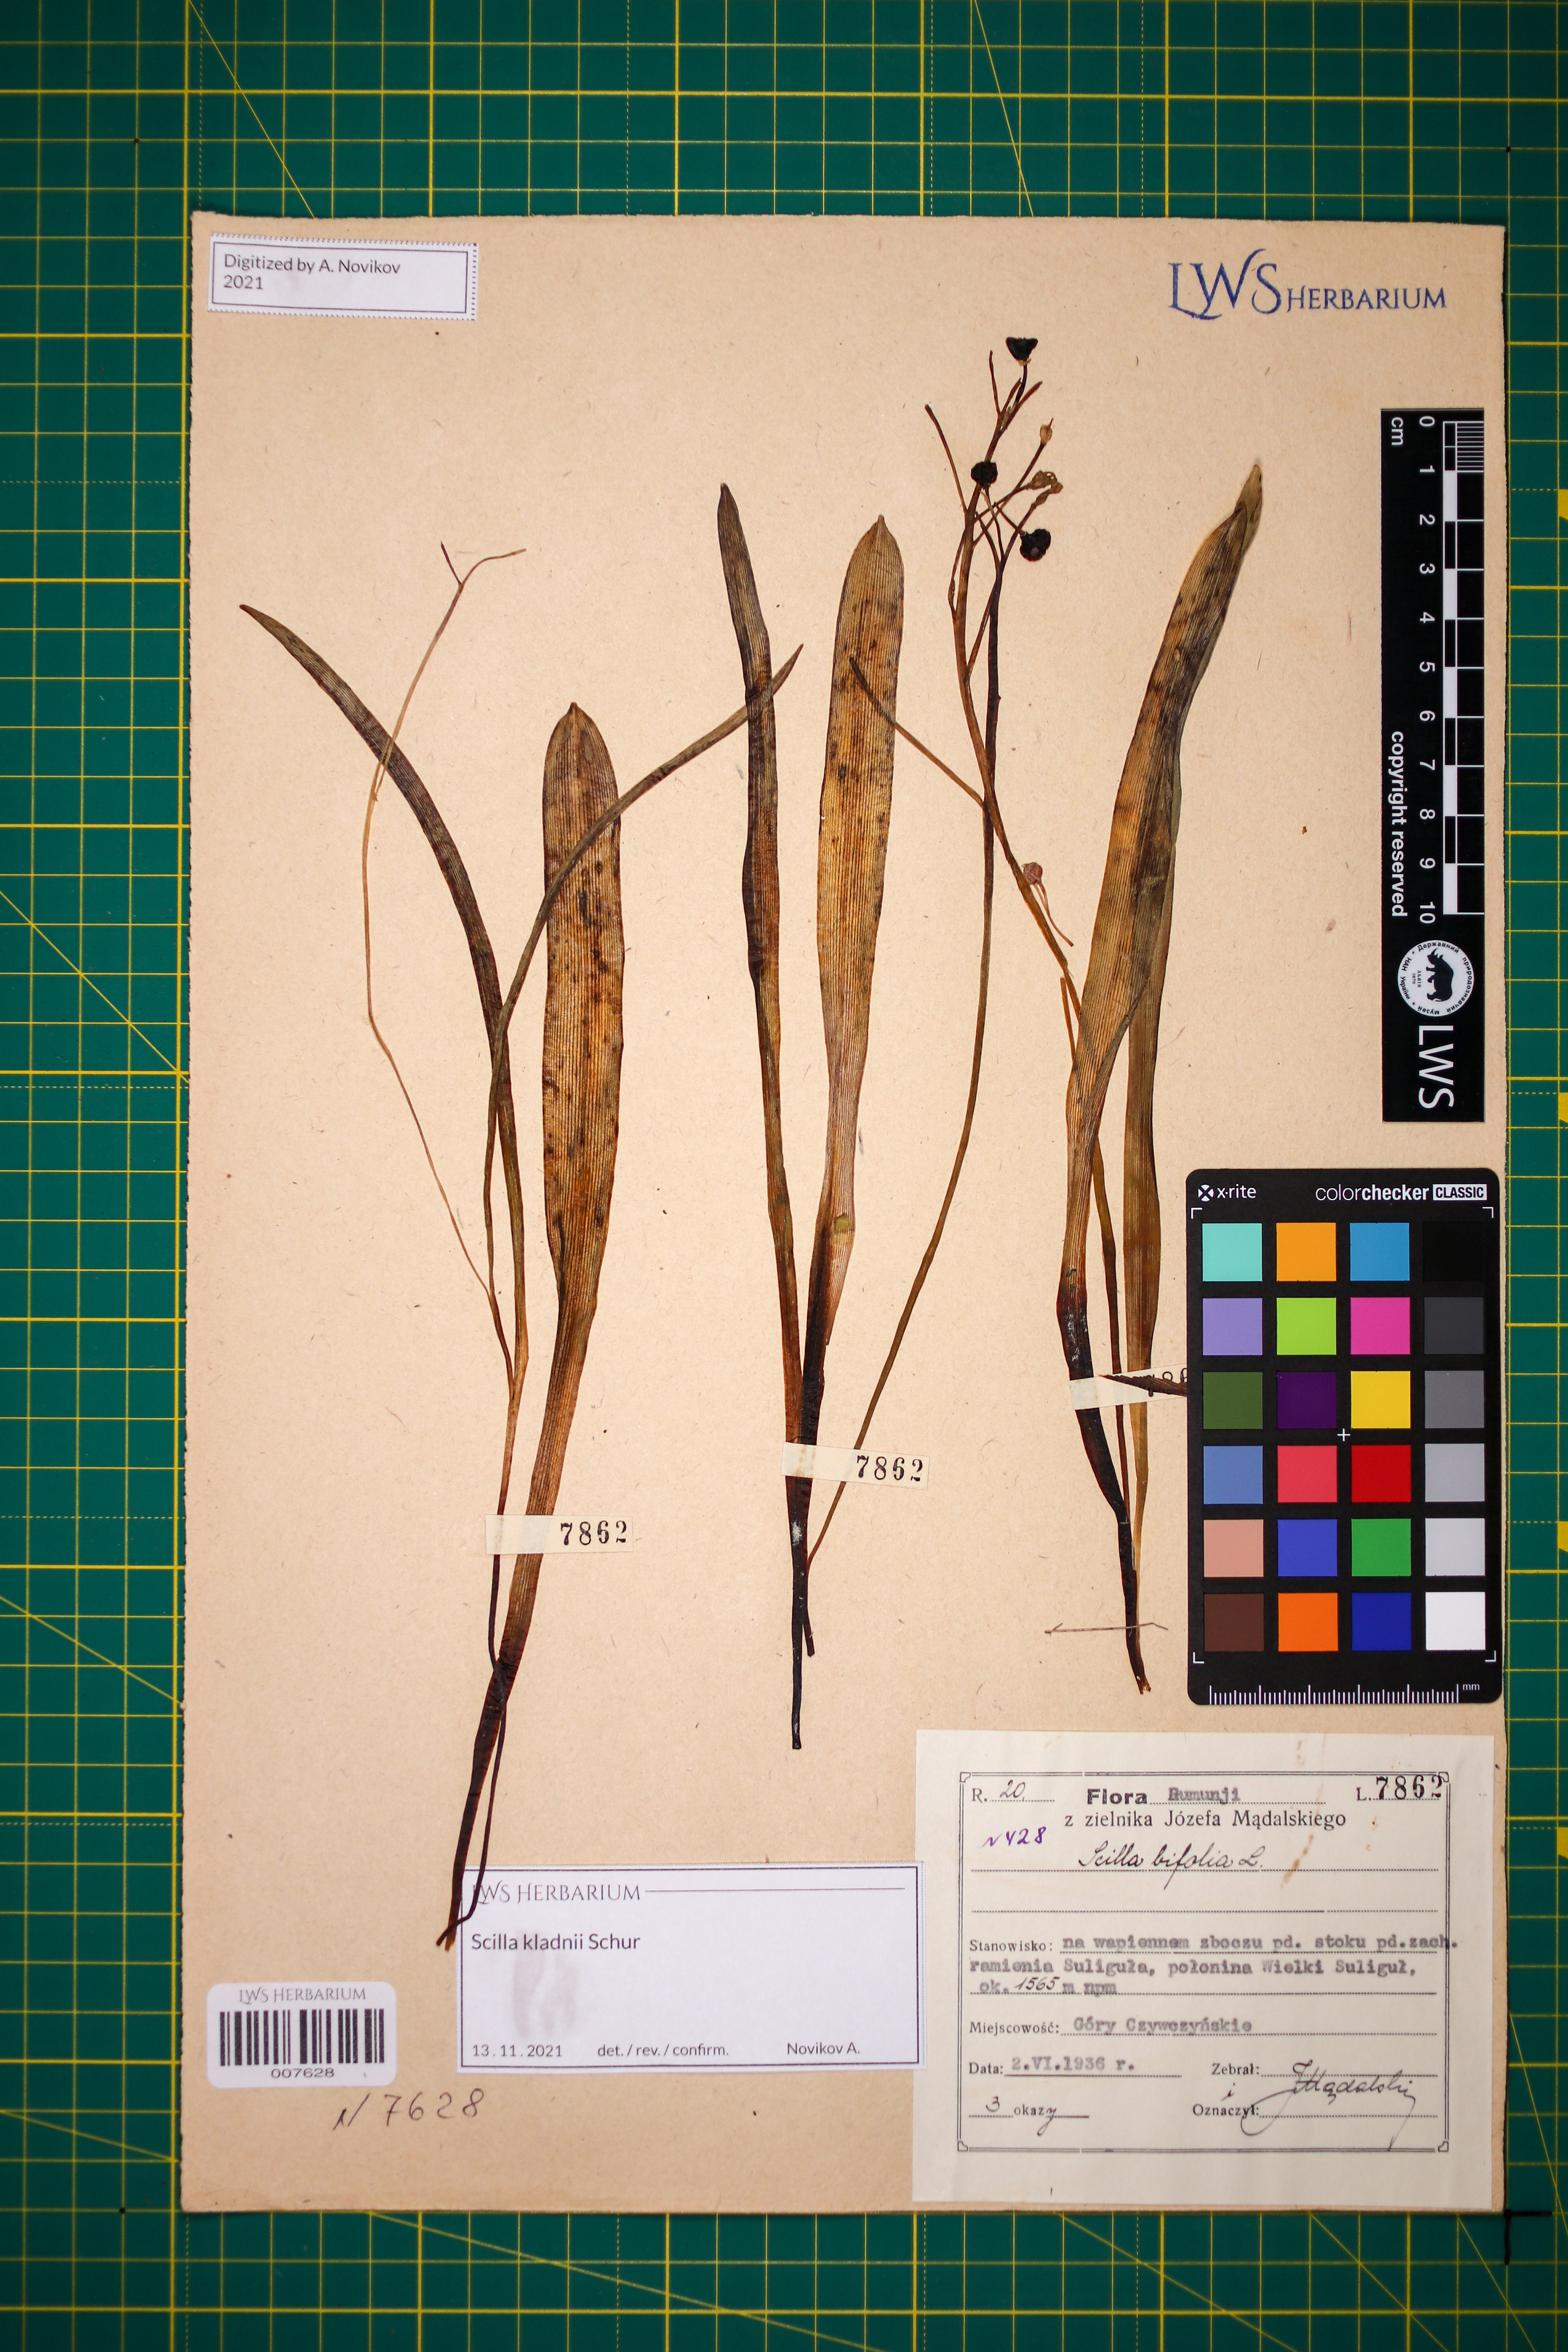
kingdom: Plantae
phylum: Tracheophyta
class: Liliopsida
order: Asparagales
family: Asparagaceae
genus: Scilla
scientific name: Scilla kladnii
